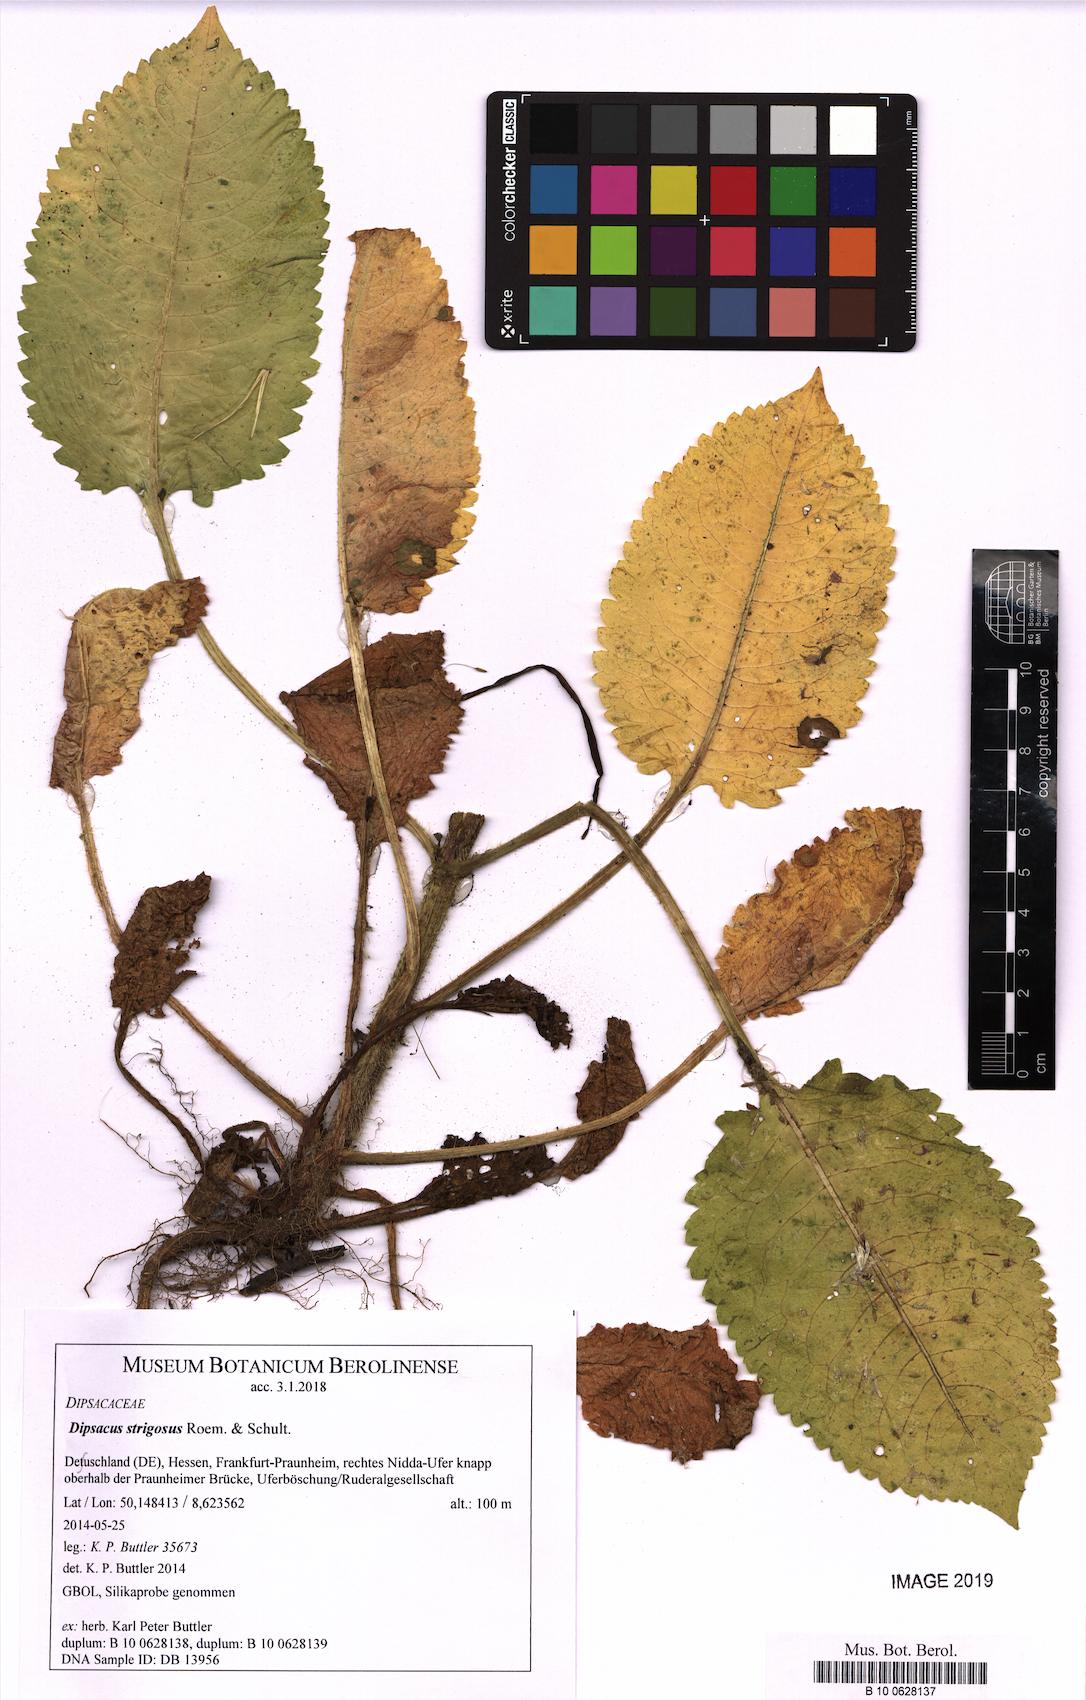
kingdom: Plantae
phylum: Tracheophyta
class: Magnoliopsida
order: Dipsacales
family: Caprifoliaceae
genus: Dipsacus
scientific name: Dipsacus strigosus
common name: Yellow-flowered teasel
